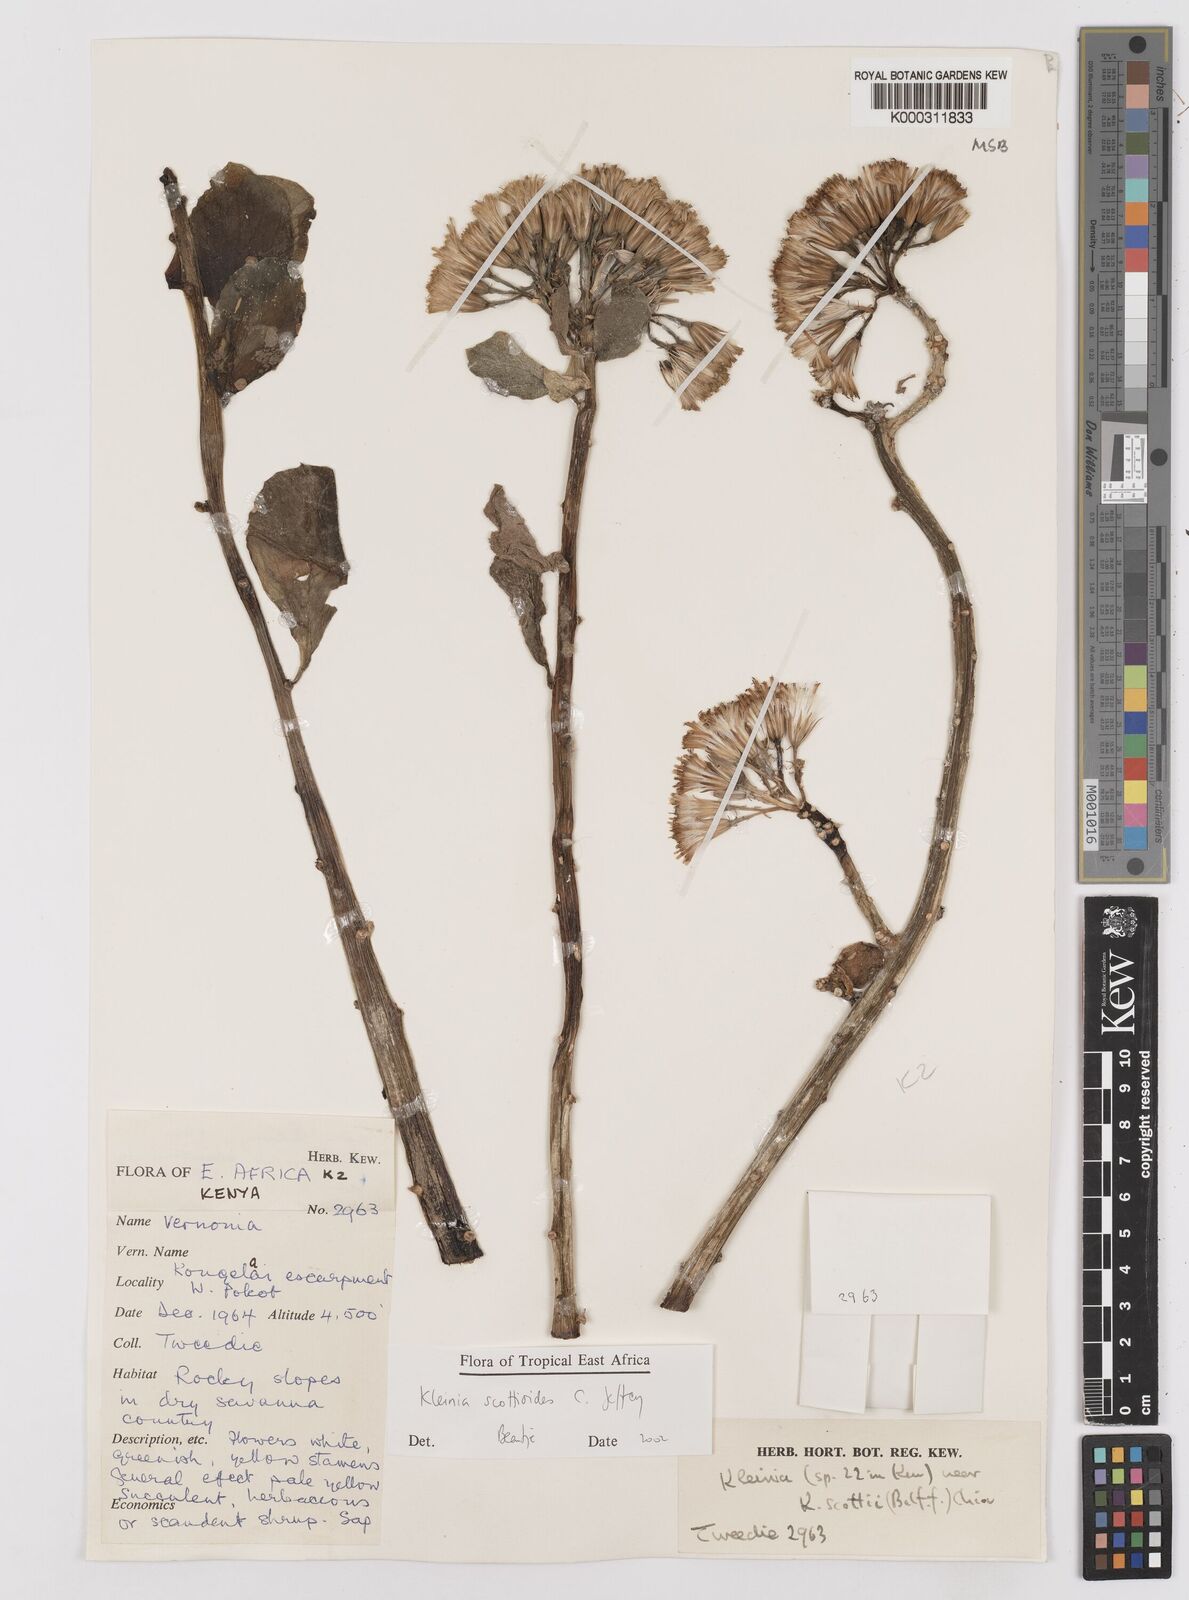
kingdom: Plantae
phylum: Tracheophyta
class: Magnoliopsida
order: Asterales
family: Asteraceae
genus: Curio
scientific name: Curio avasimontanus
